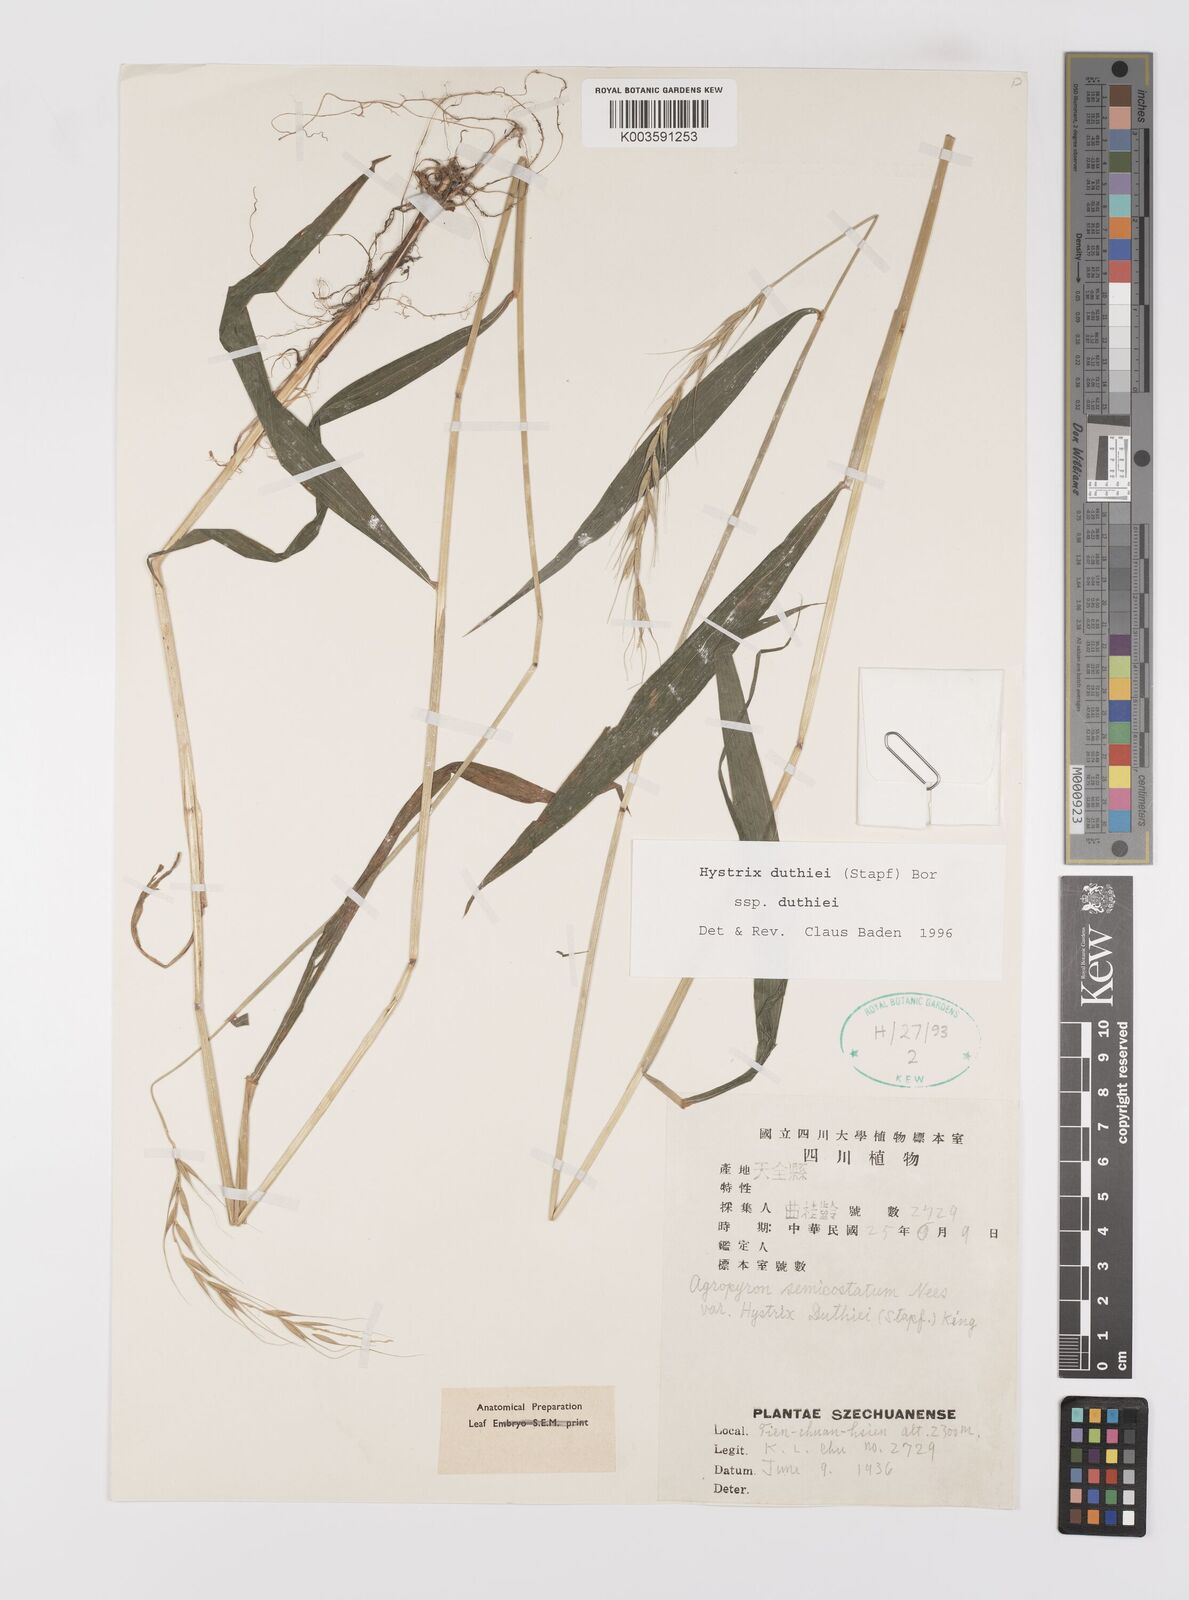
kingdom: Plantae
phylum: Tracheophyta
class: Liliopsida
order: Poales
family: Poaceae
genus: Leymus
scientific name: Leymus duthiei
